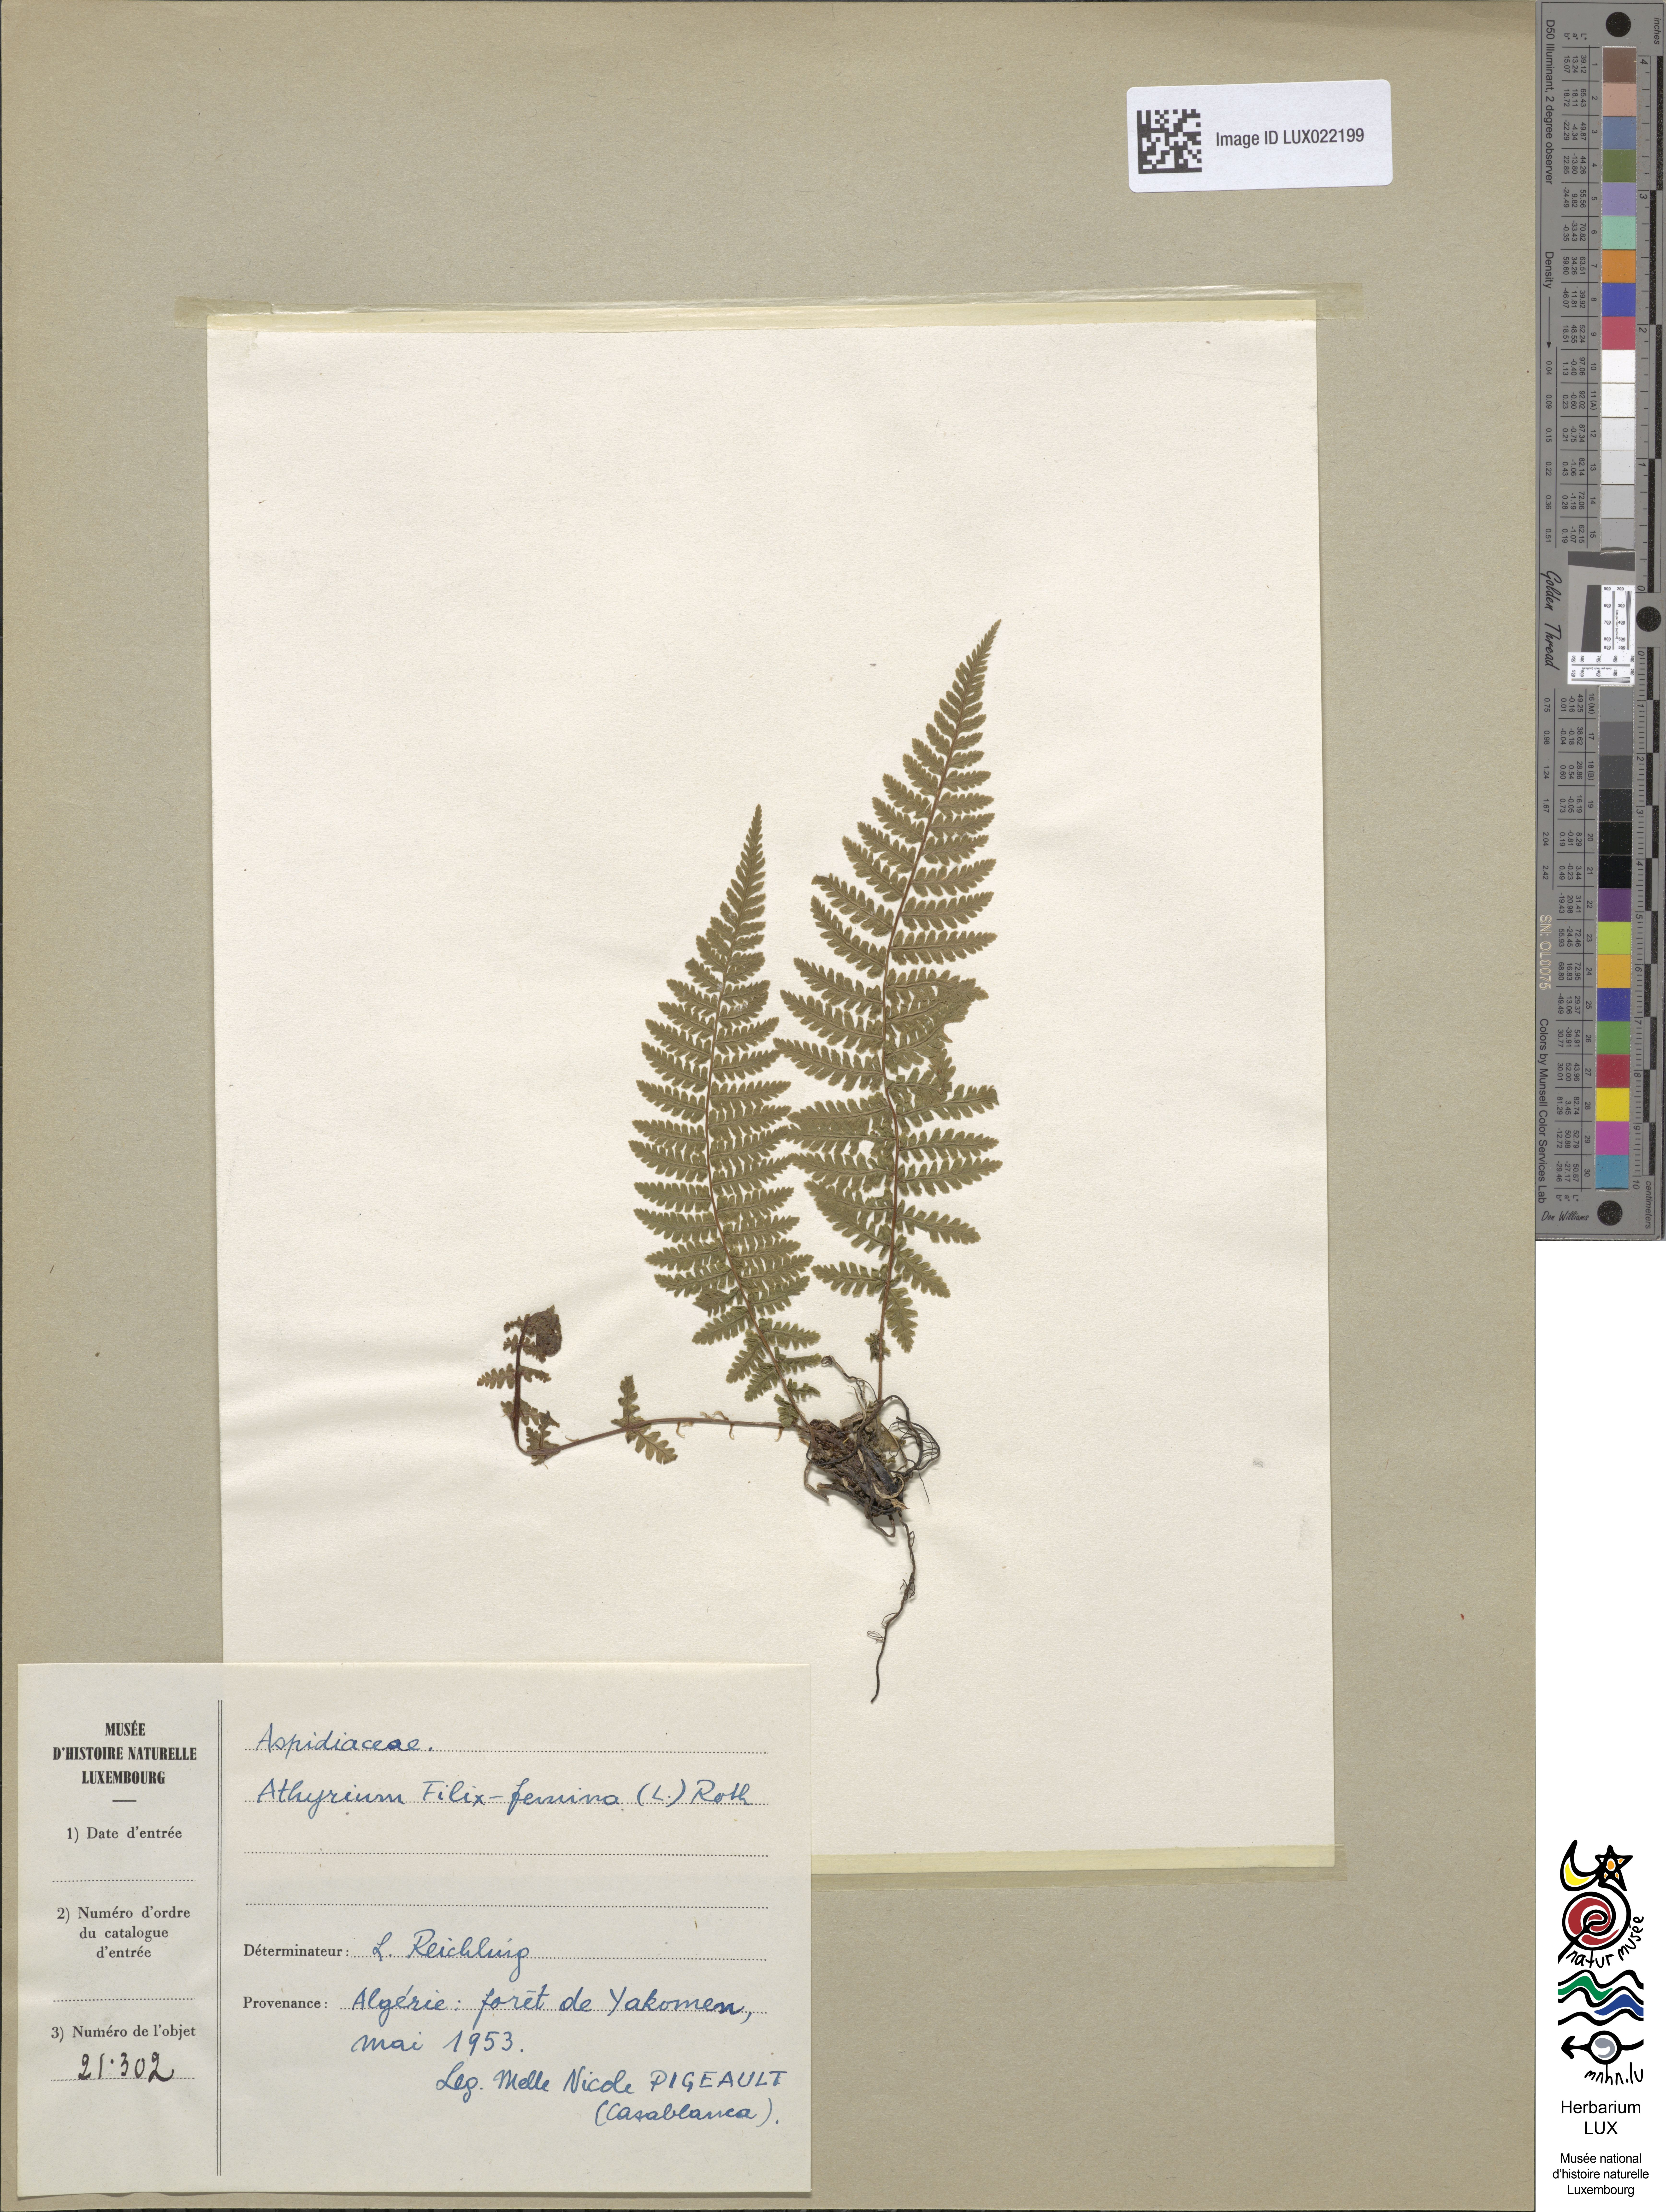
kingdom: Plantae
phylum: Tracheophyta
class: Polypodiopsida
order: Polypodiales
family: Athyriaceae
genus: Athyrium
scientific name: Athyrium filix-femina
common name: Lady fern
